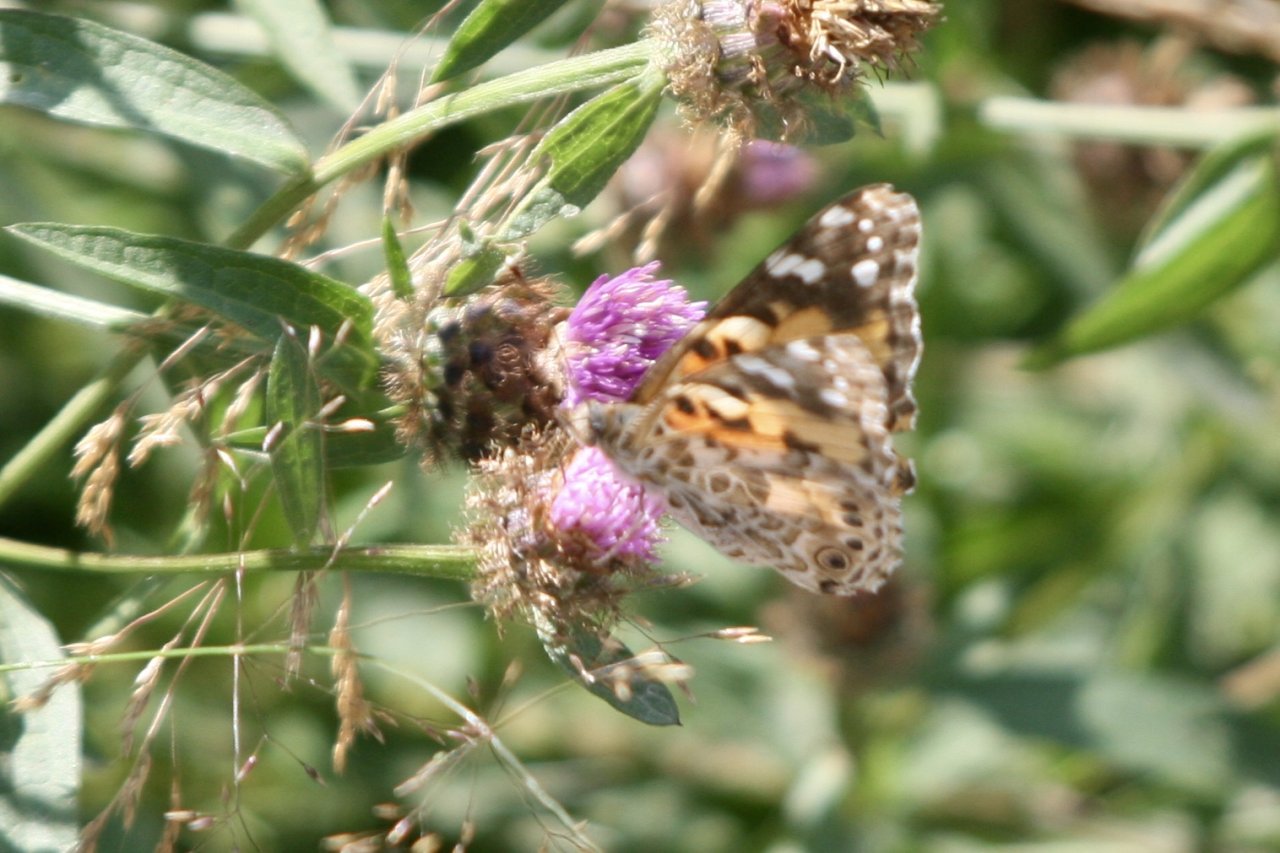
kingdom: Animalia
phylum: Arthropoda
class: Insecta
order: Lepidoptera
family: Nymphalidae
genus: Vanessa
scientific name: Vanessa cardui
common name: Painted Lady
